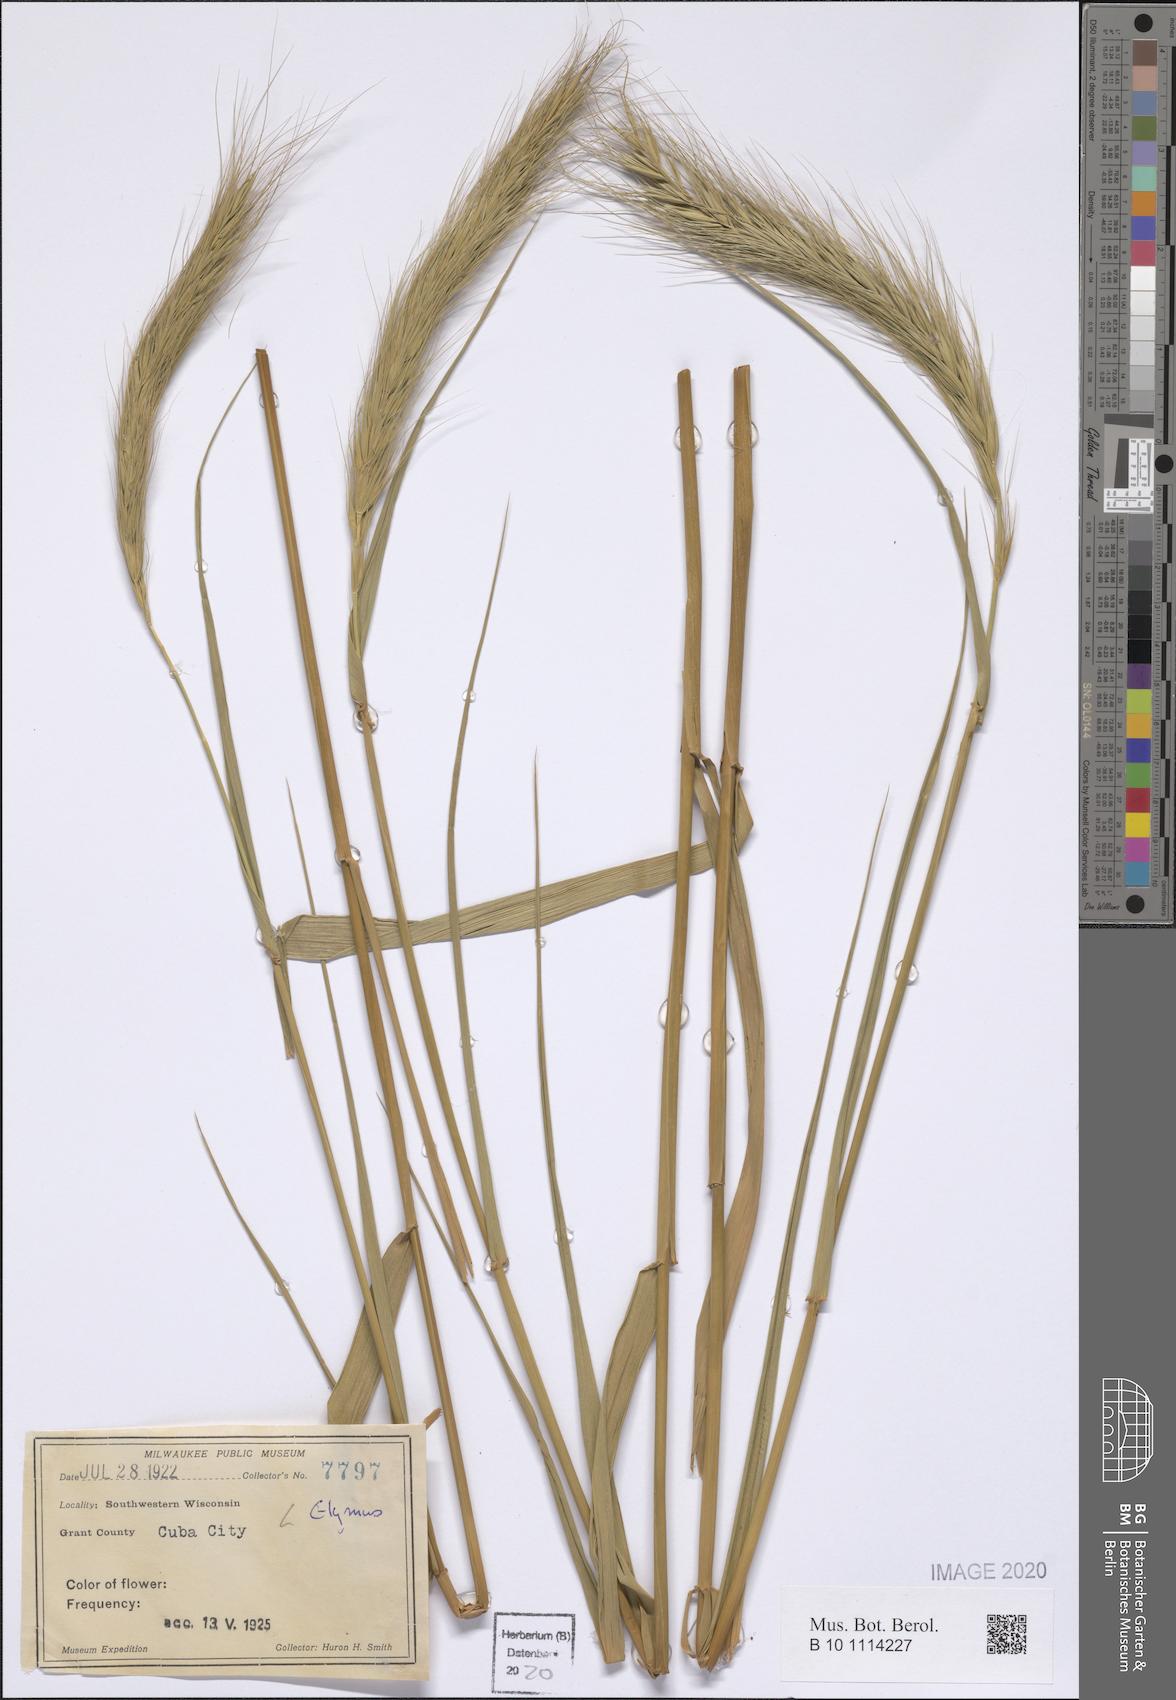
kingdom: Plantae
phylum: Tracheophyta
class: Liliopsida
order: Poales
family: Poaceae
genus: Elymus
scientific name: Elymus
